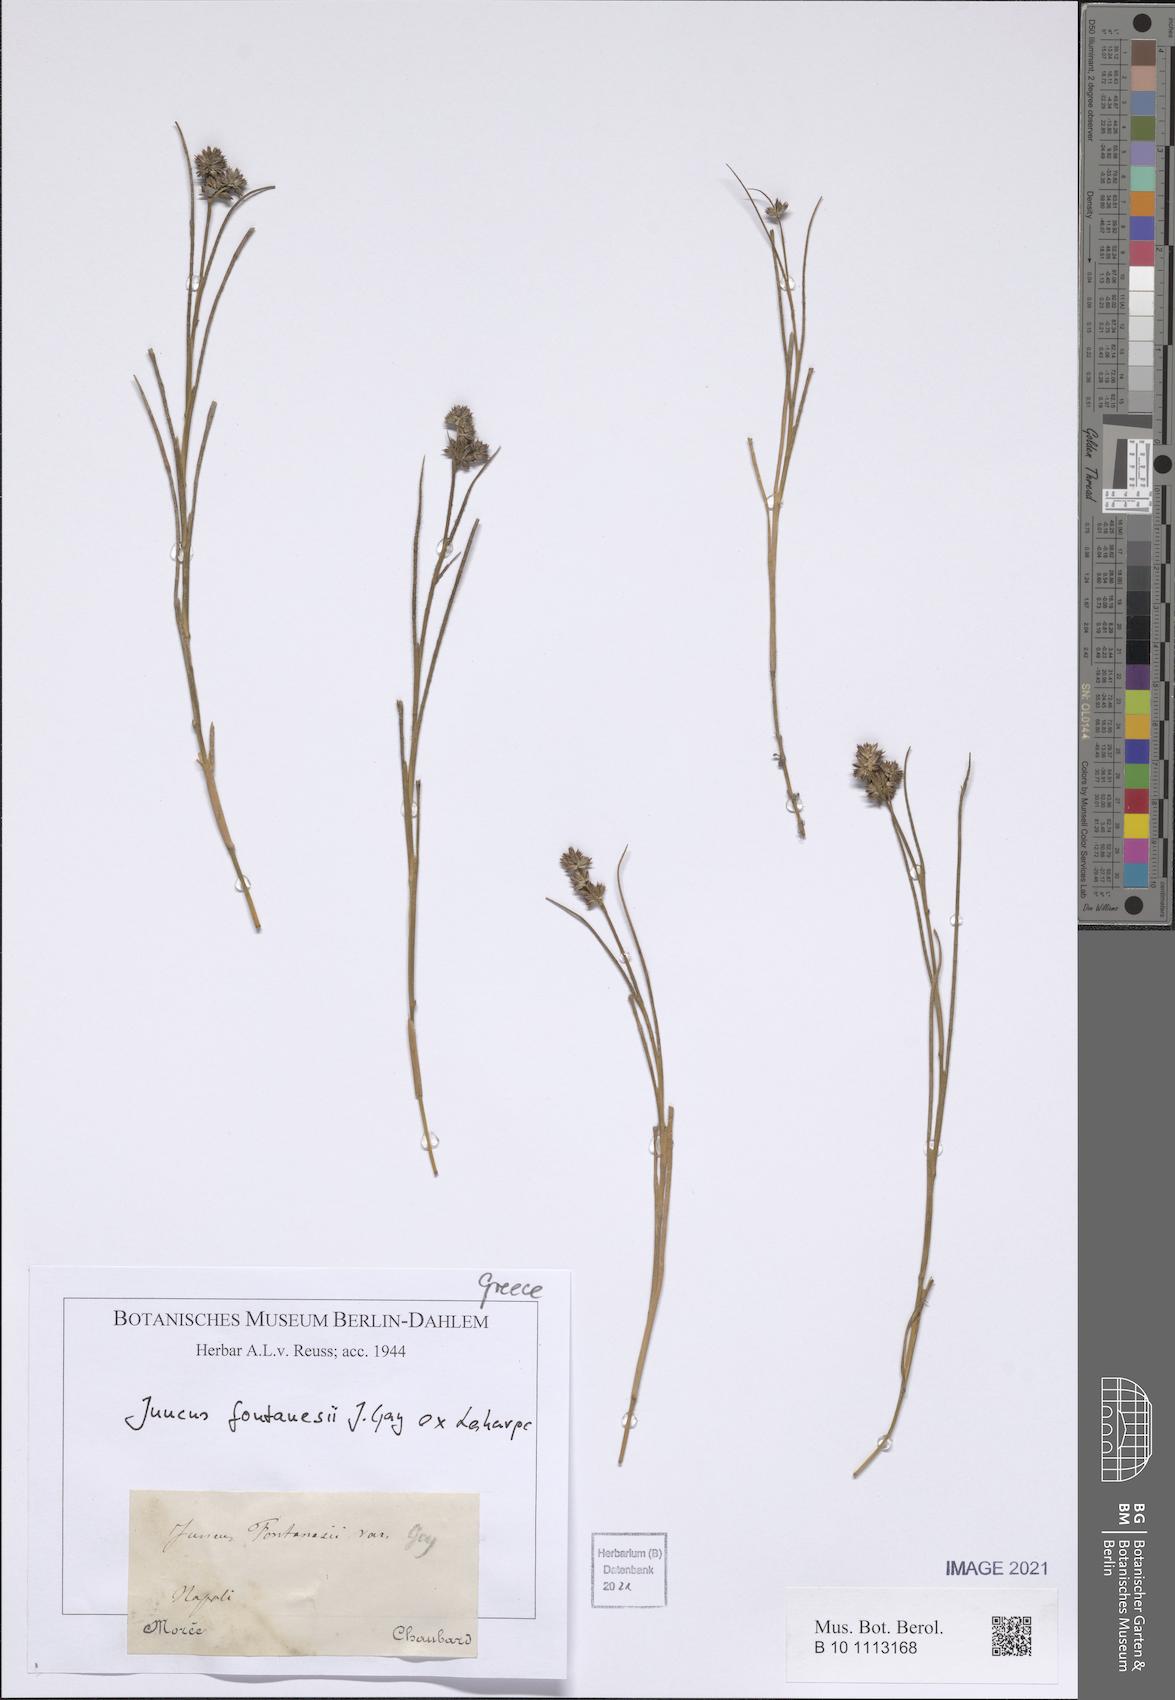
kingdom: Plantae
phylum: Tracheophyta
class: Liliopsida
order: Poales
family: Juncaceae
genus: Juncus
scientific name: Juncus fontanesii
